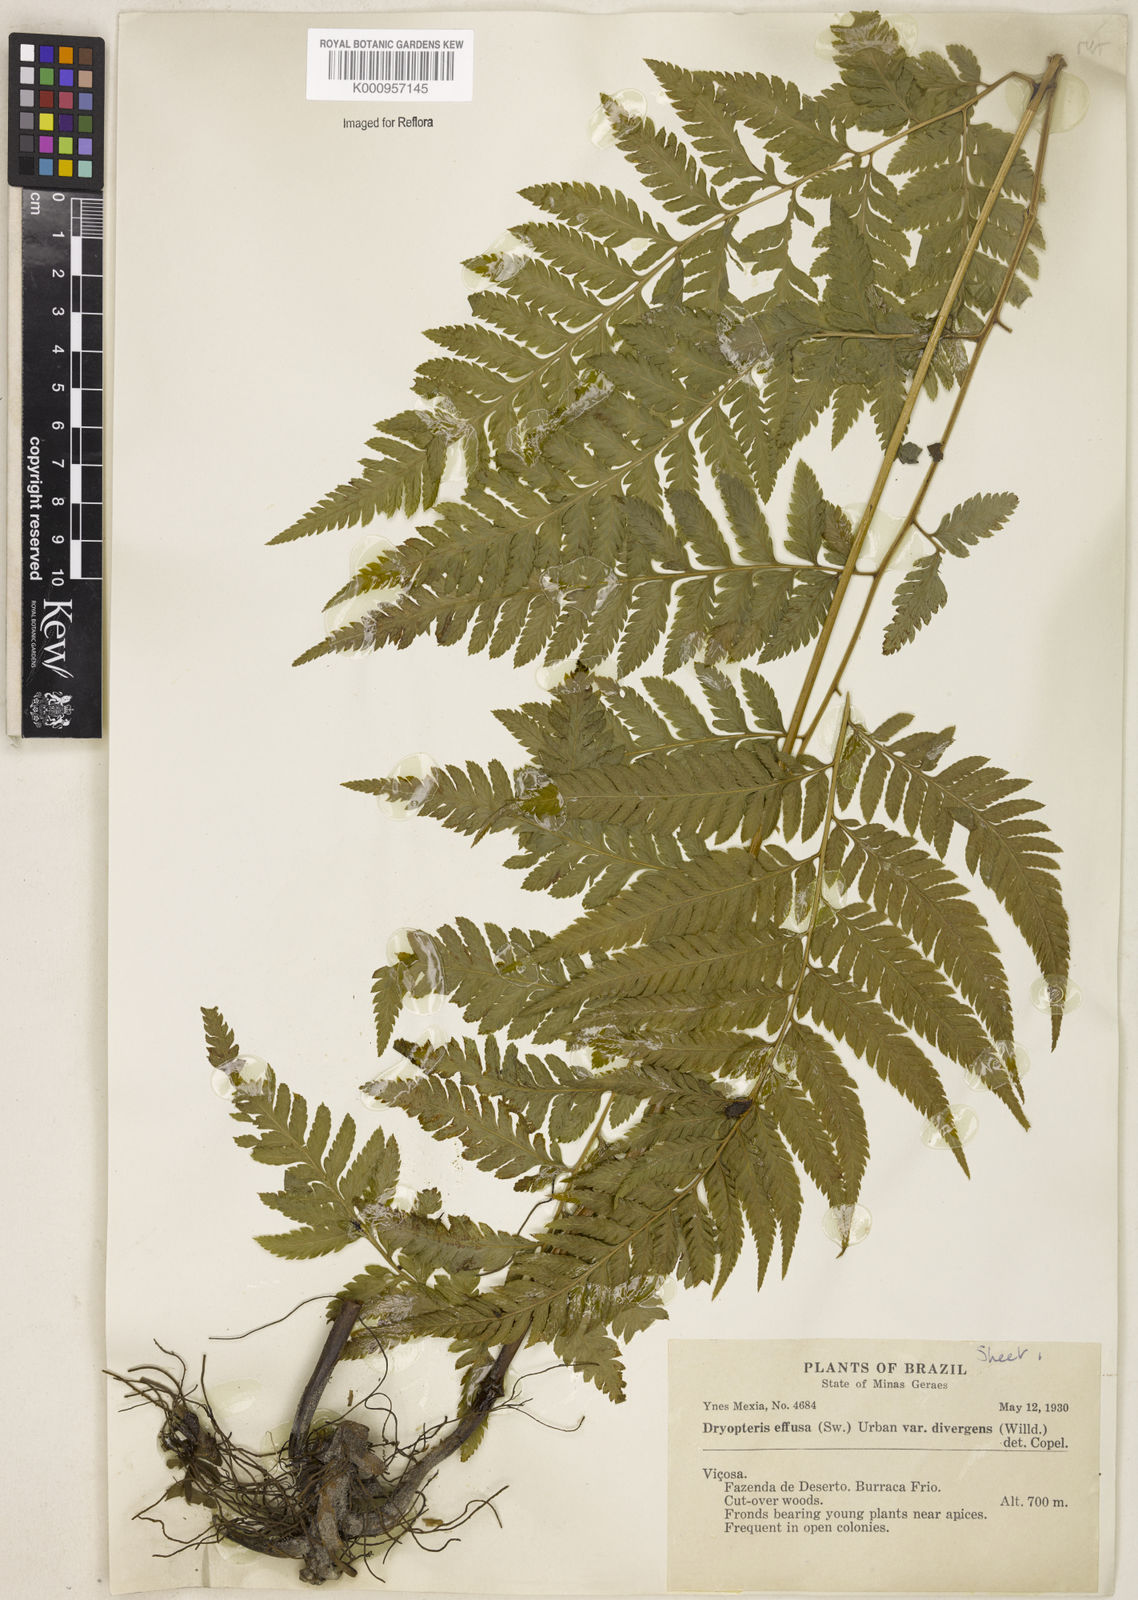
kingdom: Plantae
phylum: Tracheophyta
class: Polypodiopsida
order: Polypodiales
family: Dryopteridaceae
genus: Parapolystichum
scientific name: Parapolystichum effusum
